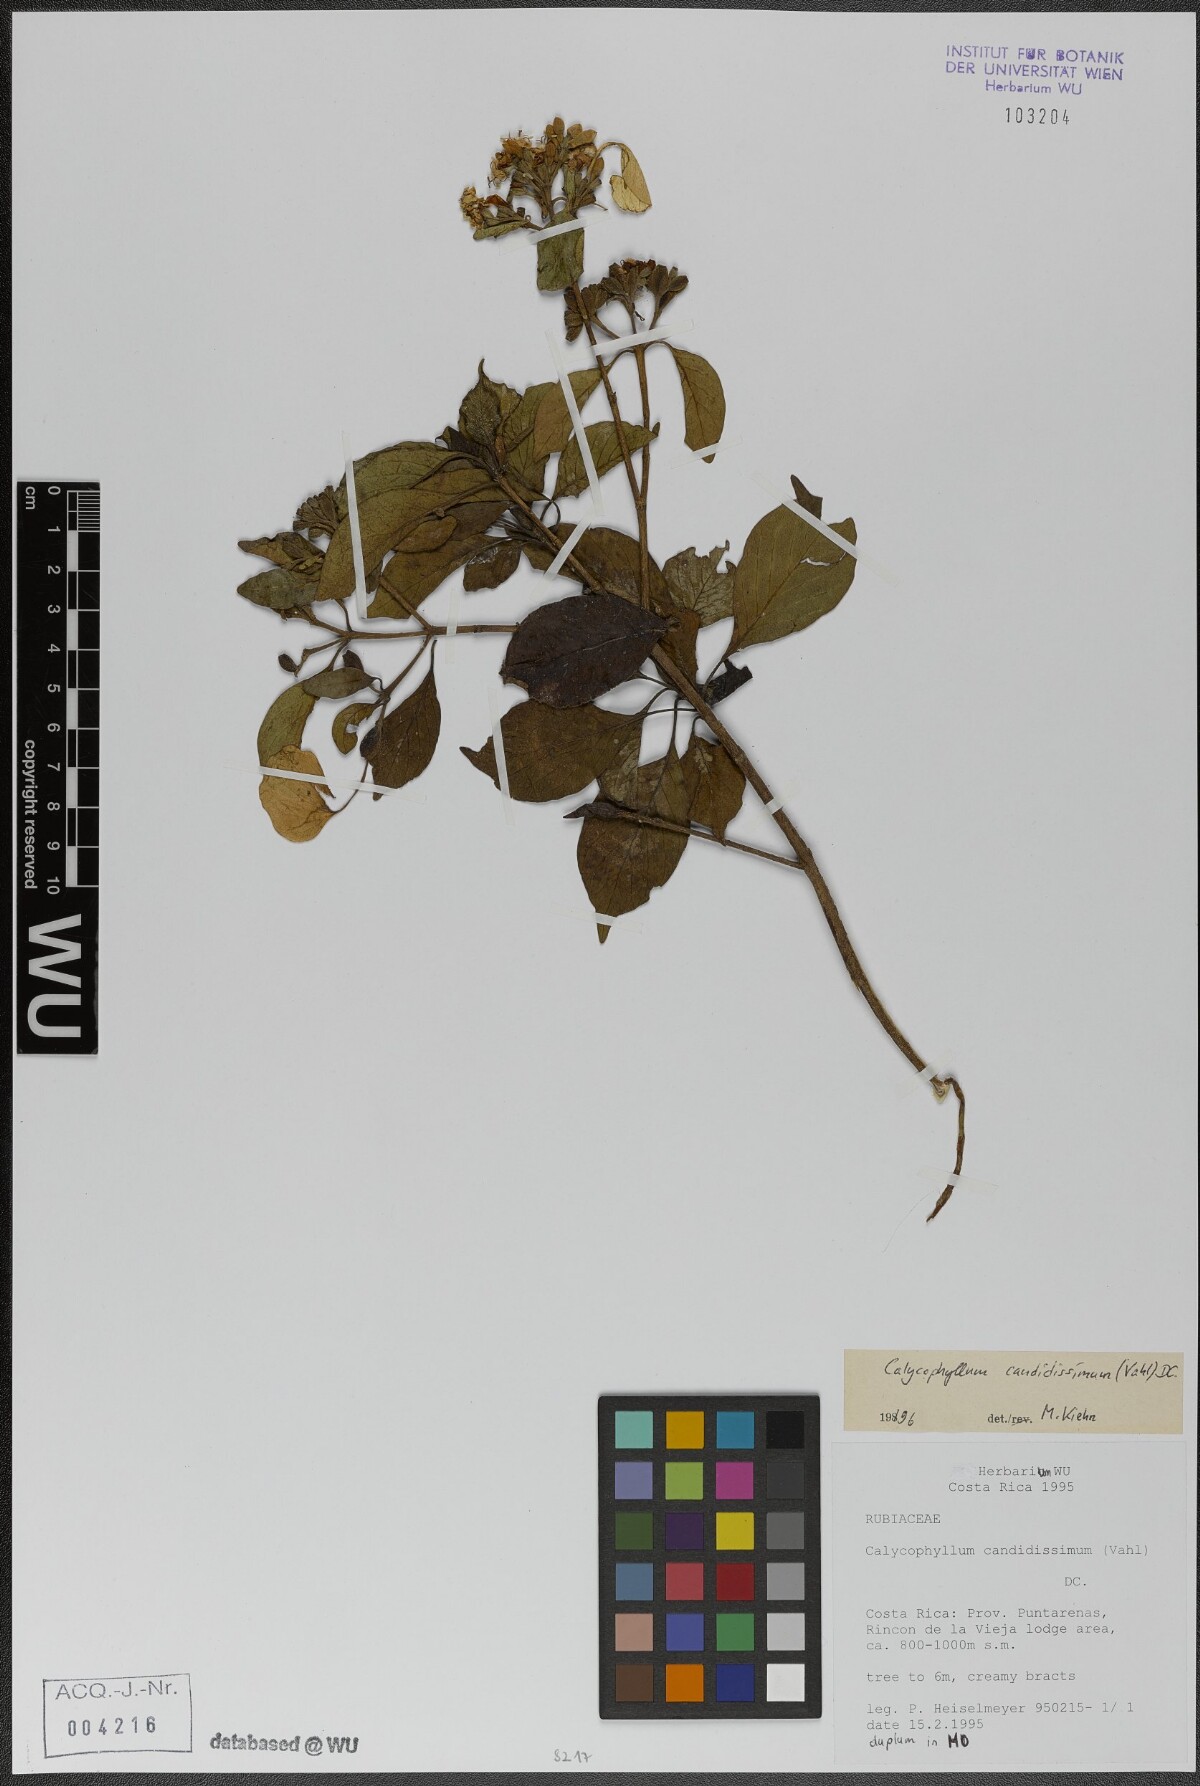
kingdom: Plantae
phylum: Tracheophyta
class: Magnoliopsida
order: Gentianales
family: Rubiaceae
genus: Calycophyllum
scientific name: Calycophyllum candidissimum
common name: Dagame
